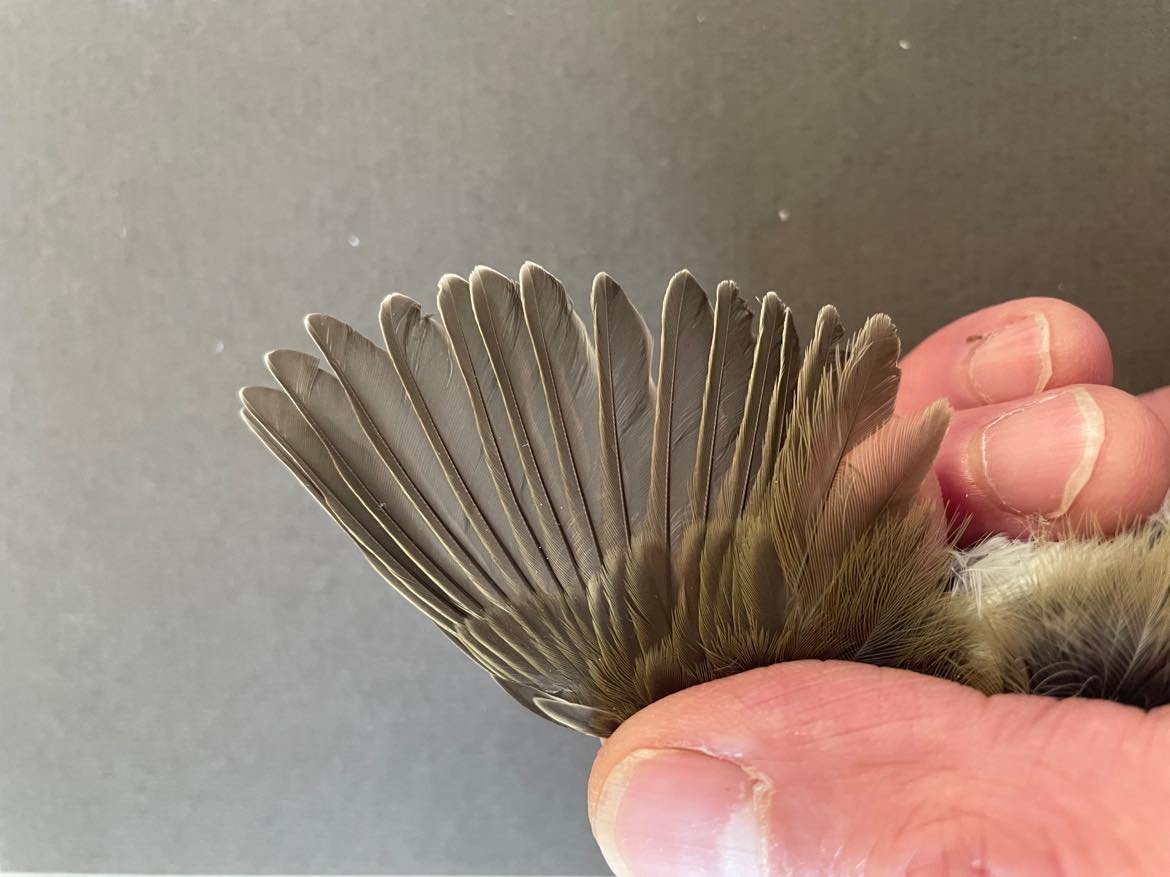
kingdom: Animalia
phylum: Chordata
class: Aves
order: Passeriformes
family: Phylloscopidae
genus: Phylloscopus
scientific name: Phylloscopus collybita
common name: Common chiffchaff
